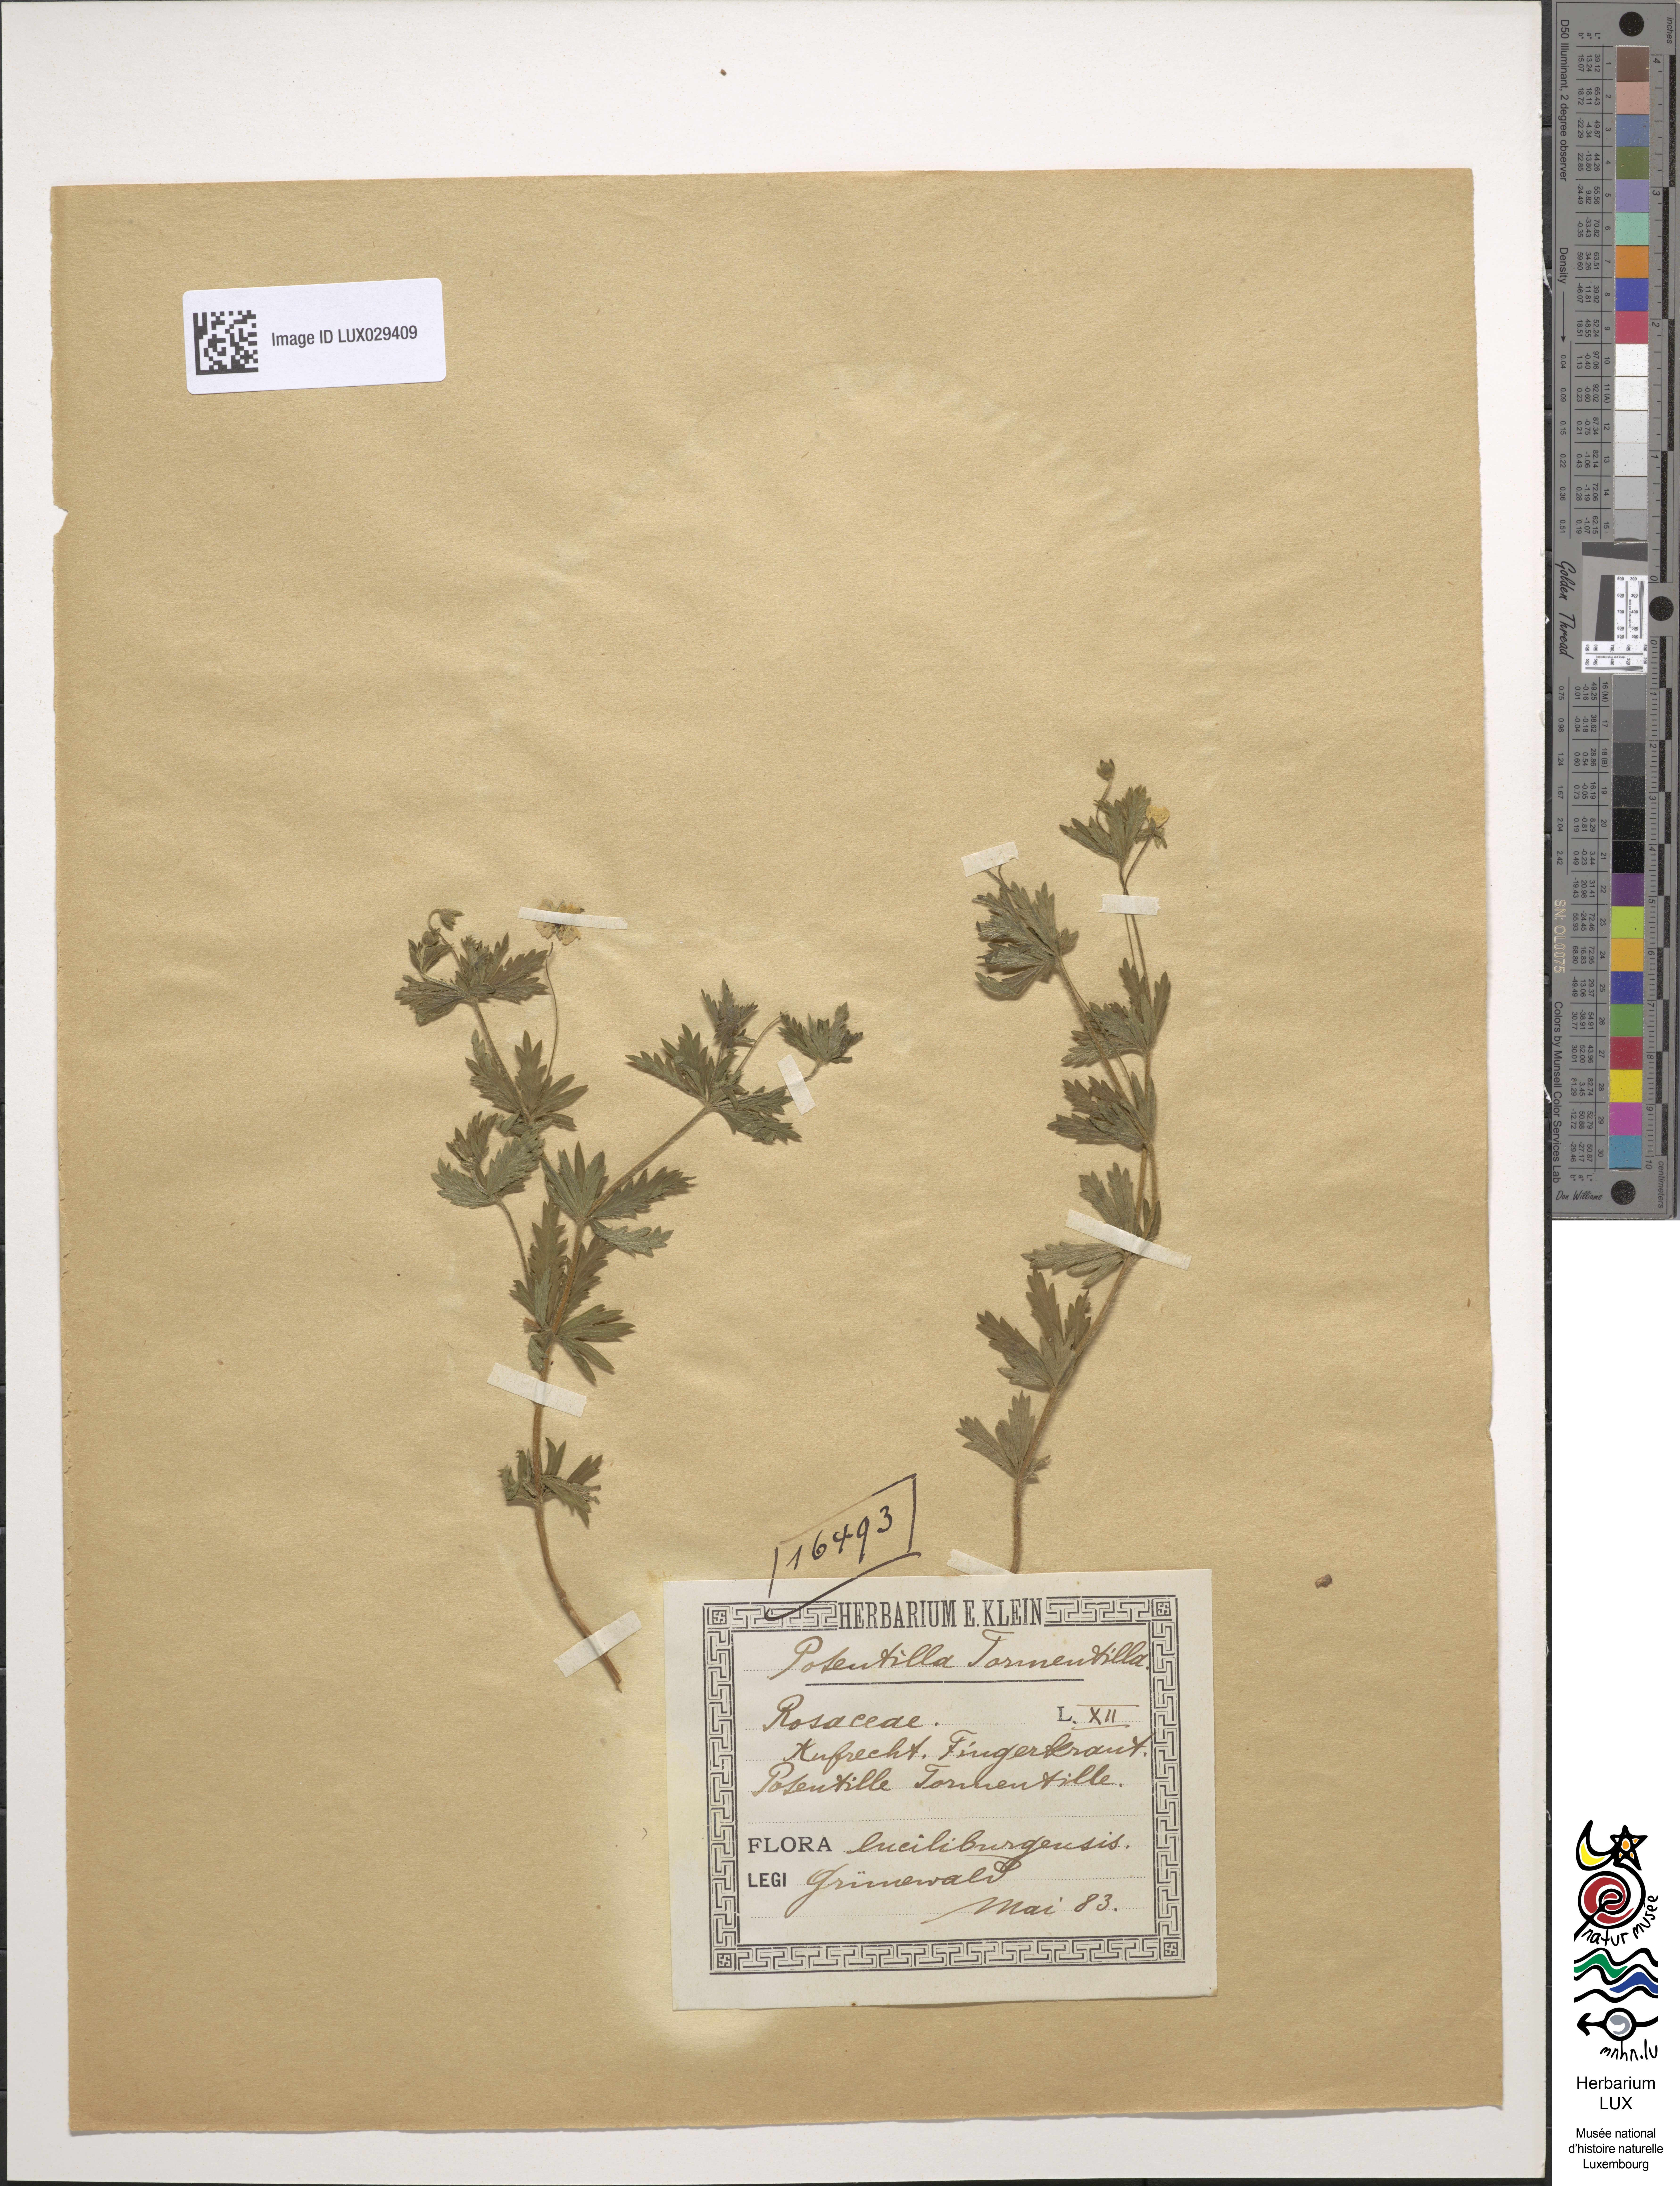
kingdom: Plantae
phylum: Tracheophyta
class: Magnoliopsida
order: Rosales
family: Rosaceae
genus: Potentilla
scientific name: Potentilla erecta
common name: Tormentil
